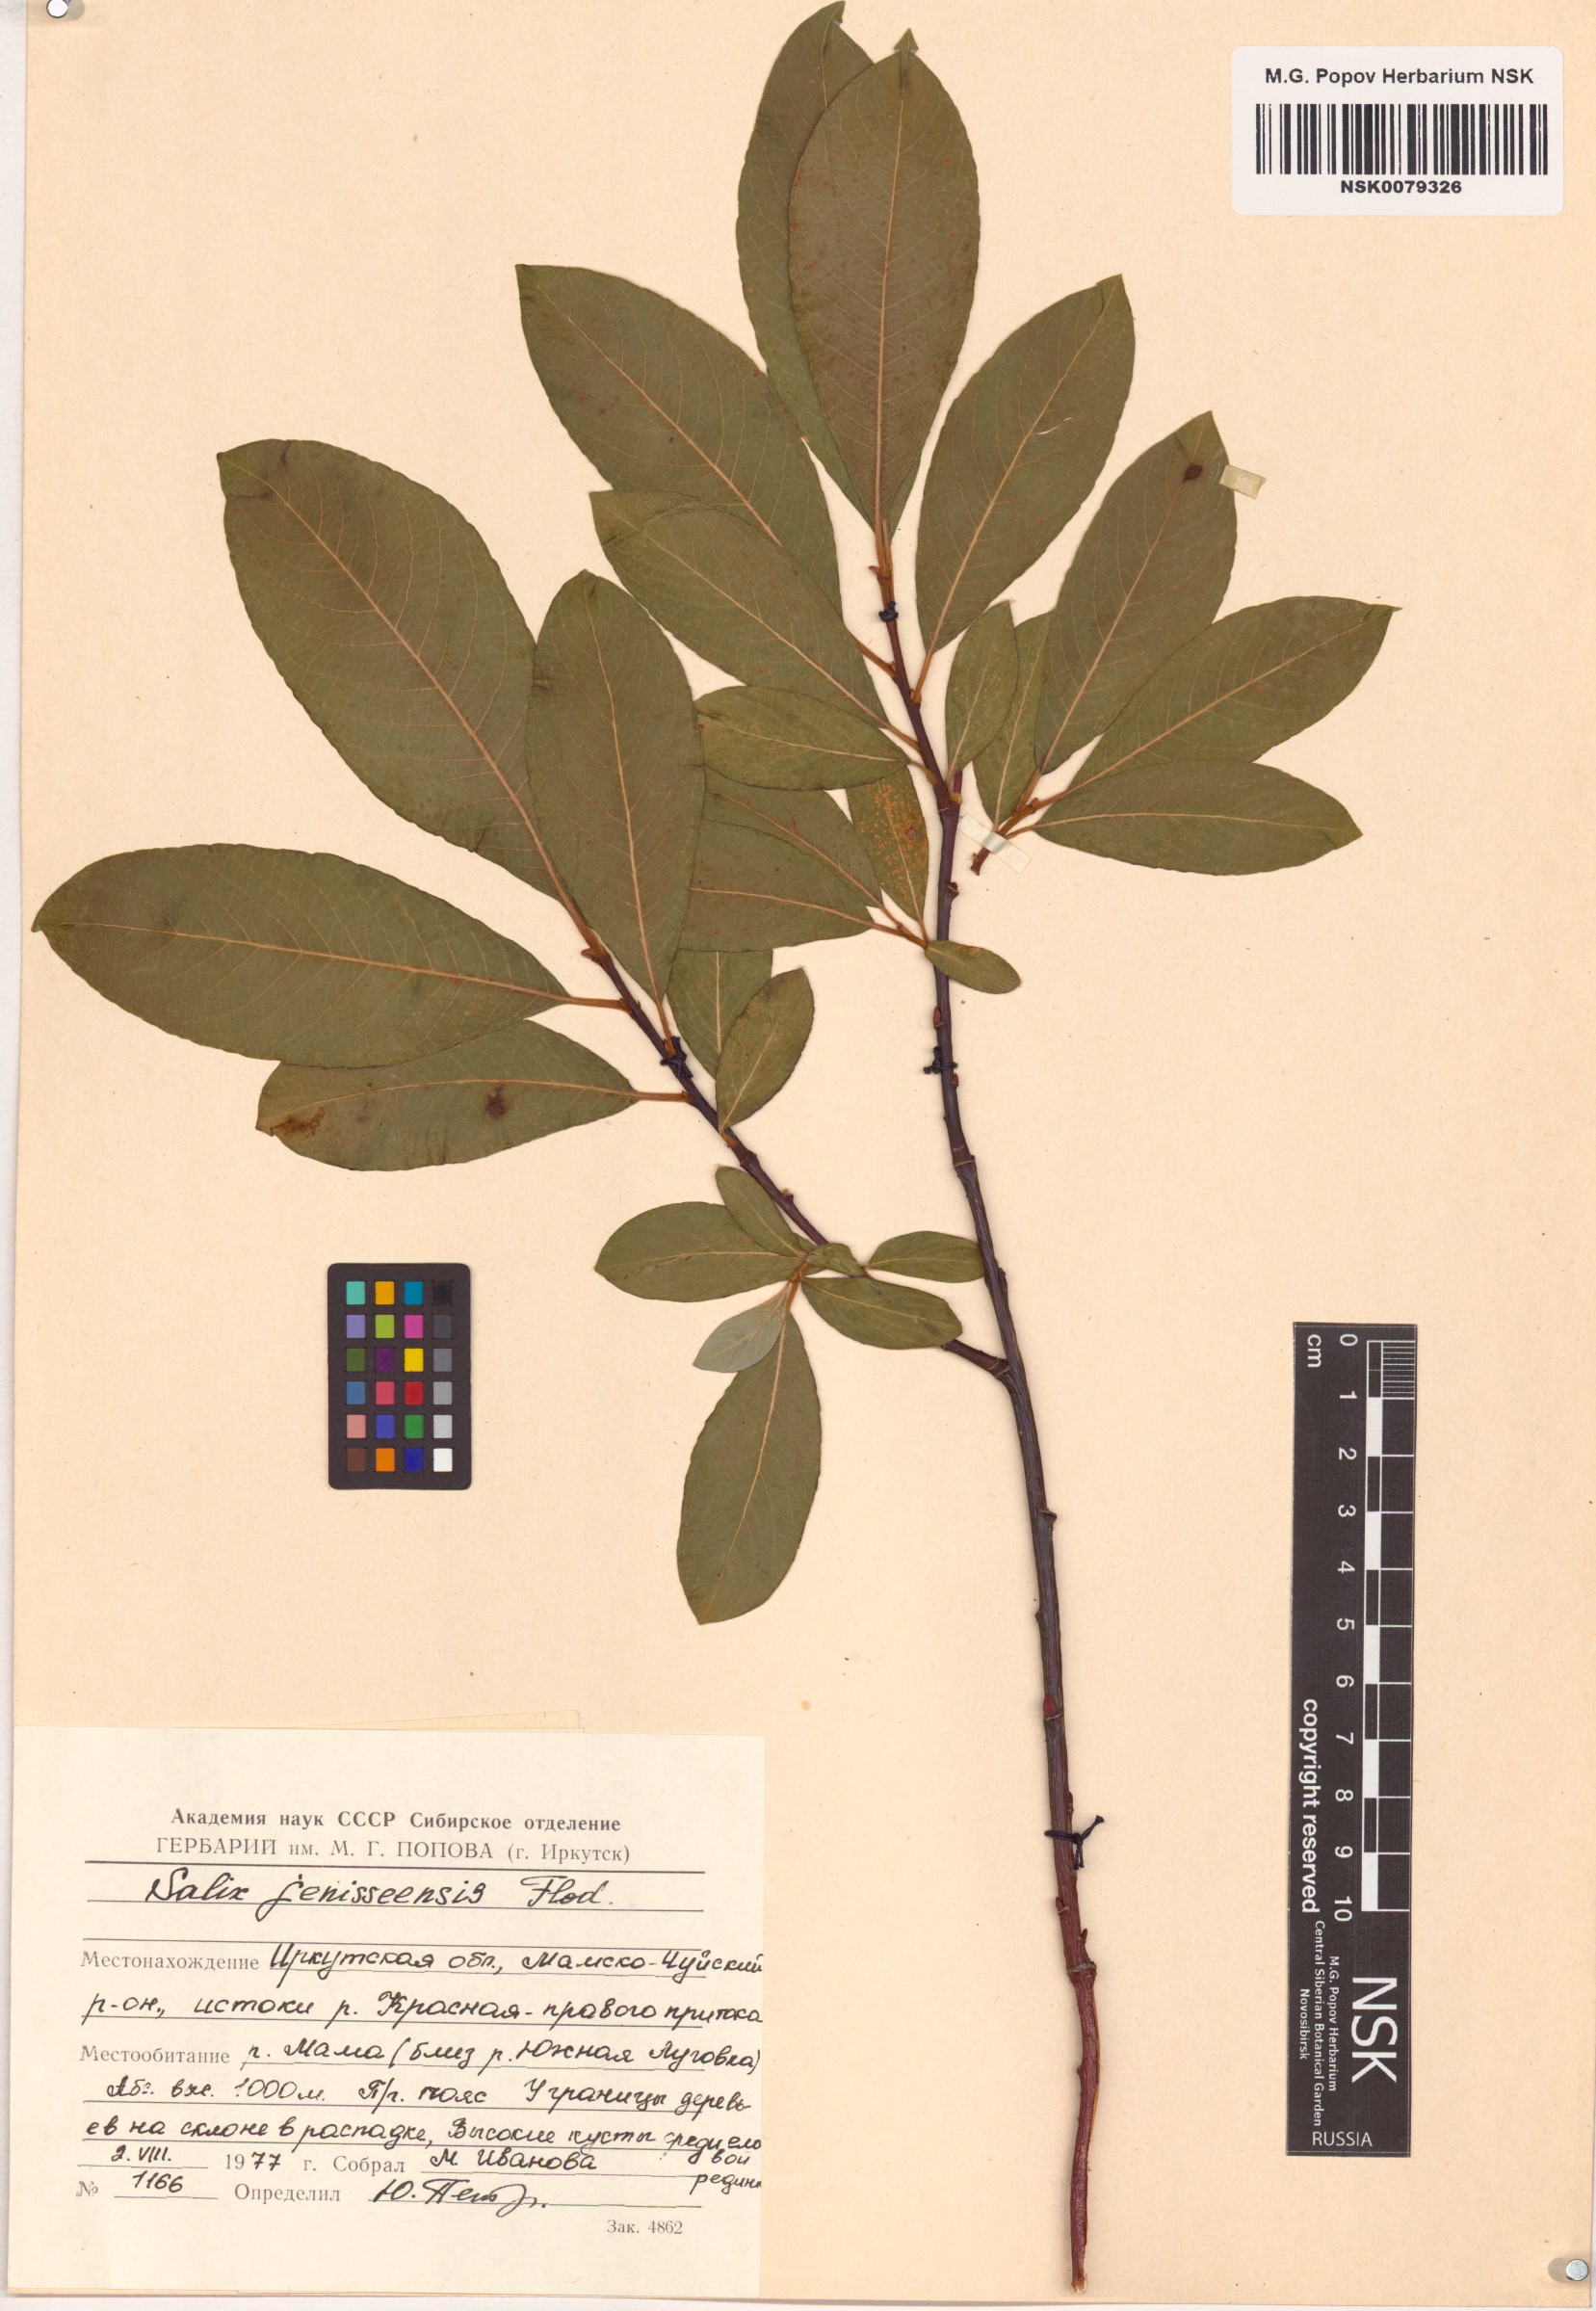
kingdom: Plantae
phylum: Tracheophyta
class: Magnoliopsida
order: Malpighiales
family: Salicaceae
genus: Salix
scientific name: Salix jenisseensis
